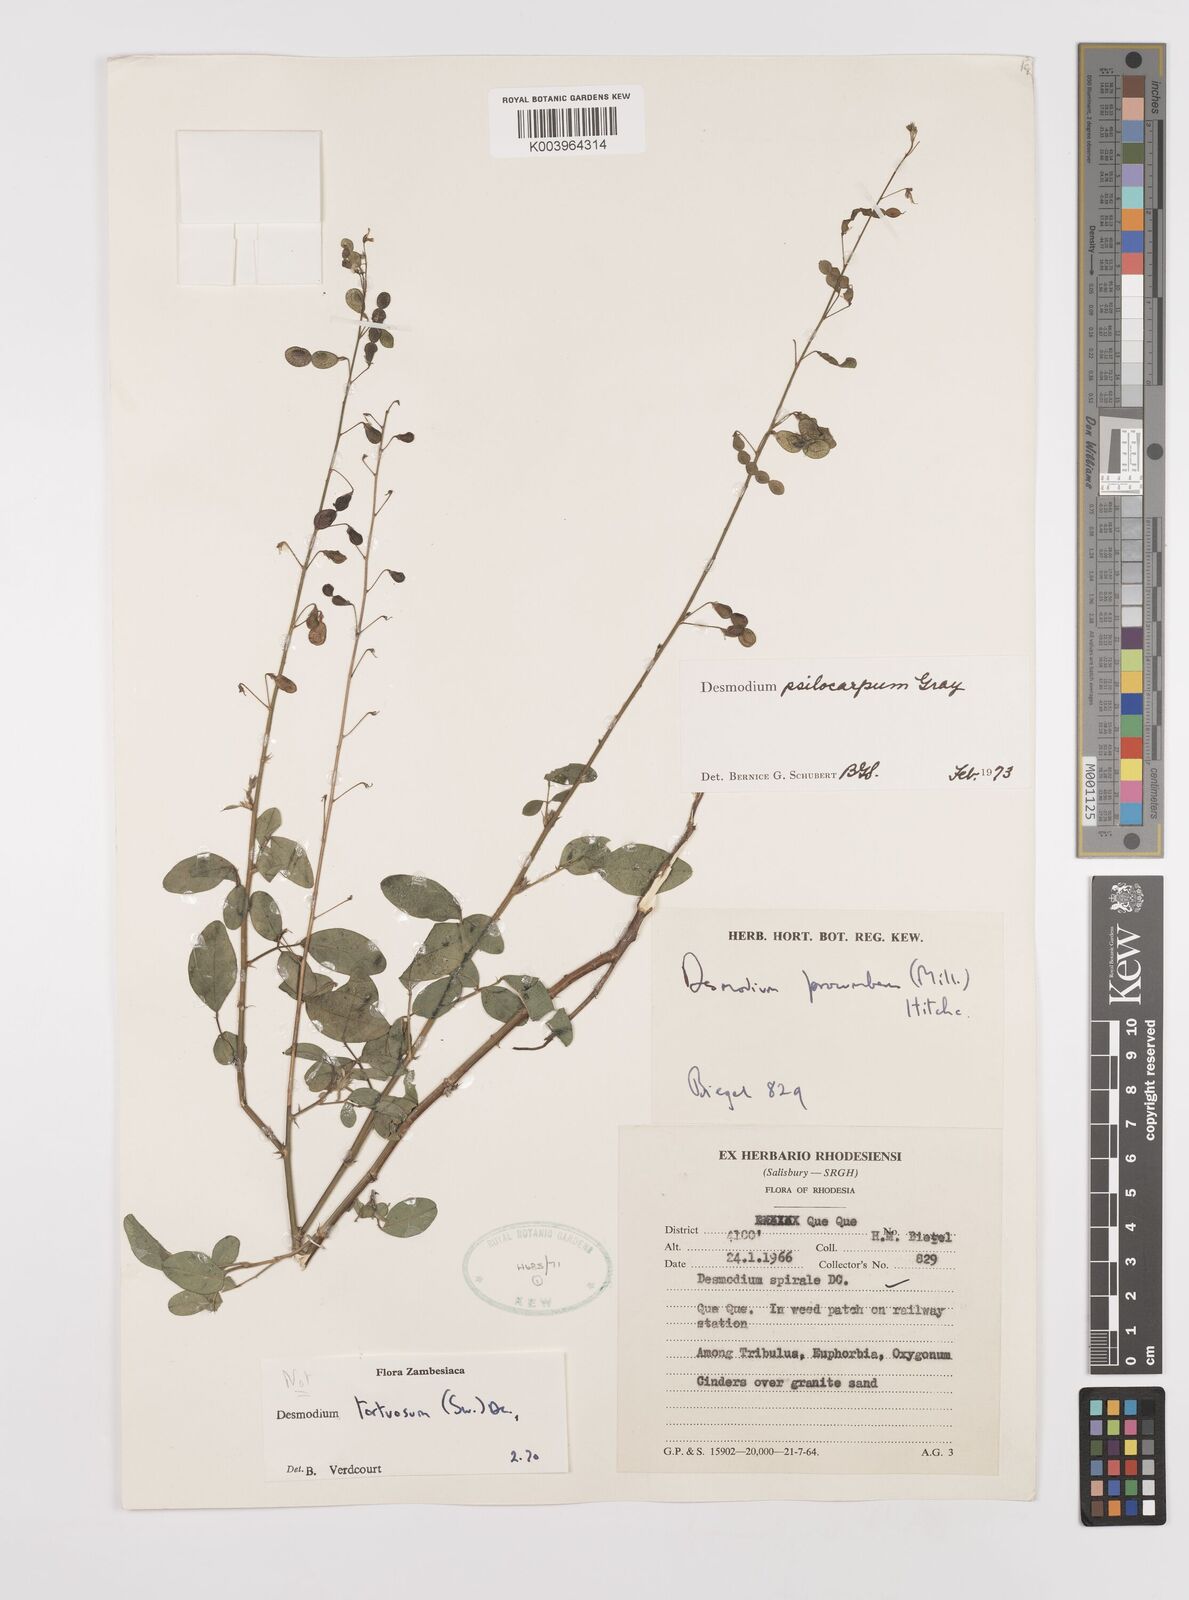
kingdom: Plantae
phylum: Tracheophyta
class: Magnoliopsida
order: Fabales
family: Fabaceae
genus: Desmodium
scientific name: Desmodium psilocarpum
